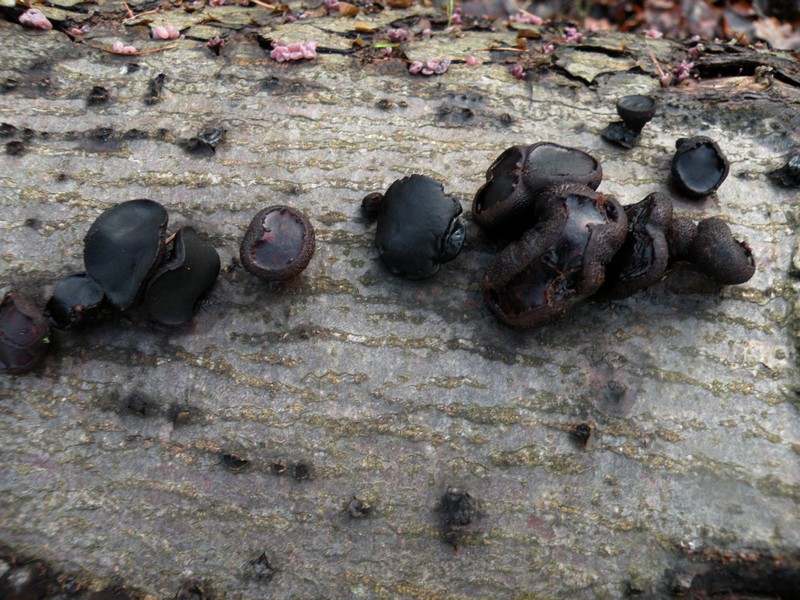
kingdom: Fungi
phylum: Ascomycota
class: Leotiomycetes
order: Phacidiales
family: Phacidiaceae
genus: Bulgaria
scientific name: Bulgaria inquinans
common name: afsmittende topsvamp
